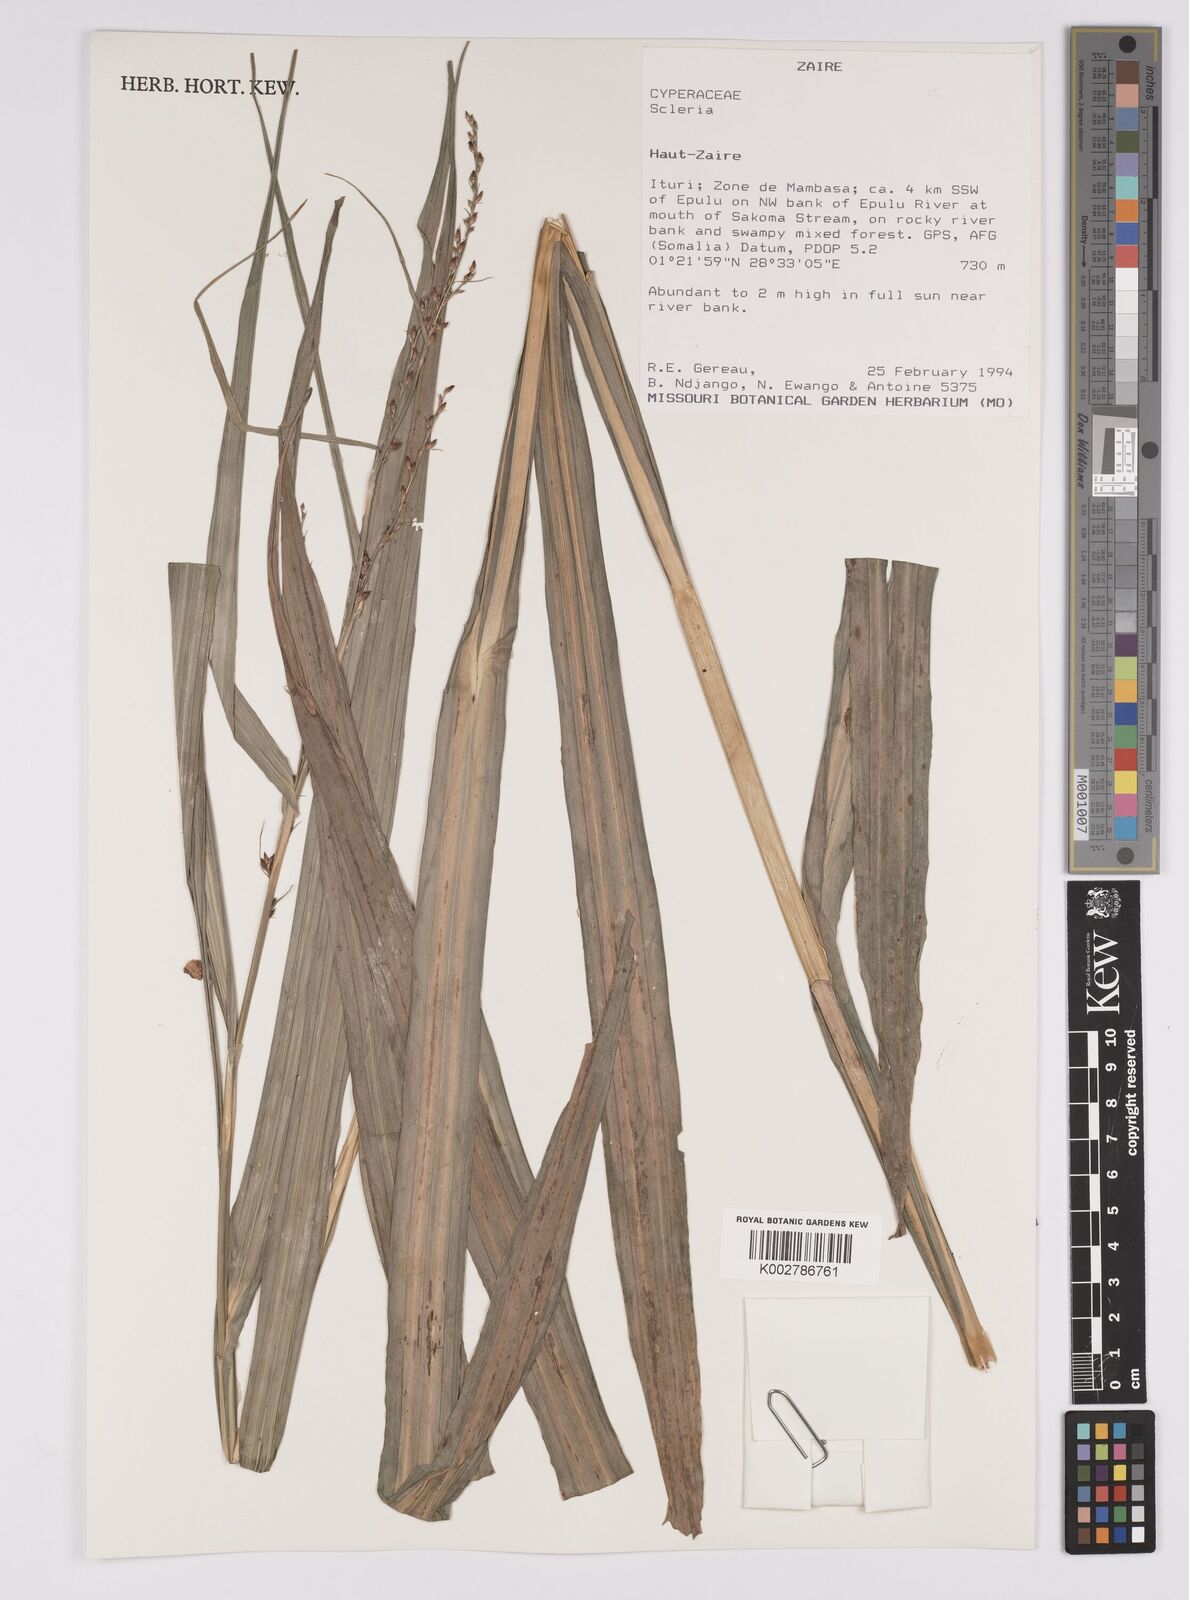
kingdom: Plantae
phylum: Tracheophyta
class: Liliopsida
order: Poales
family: Cyperaceae
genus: Scleria
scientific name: Scleria
